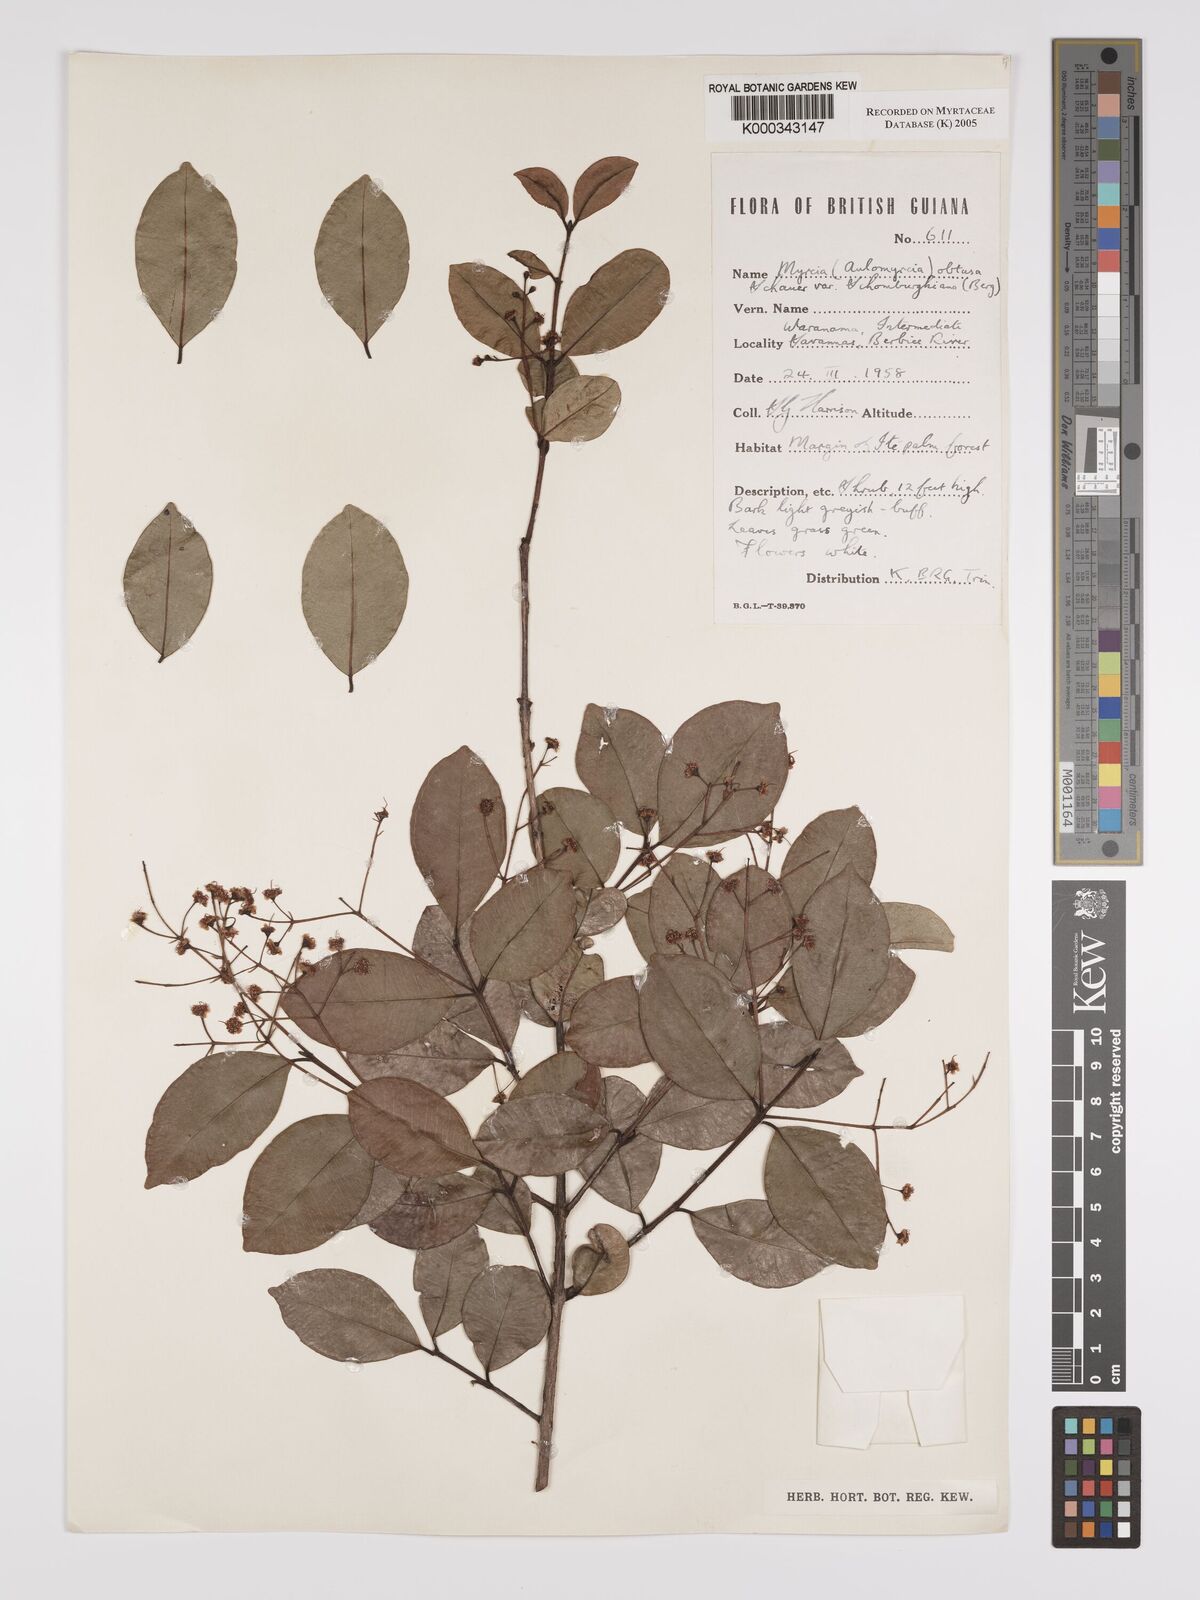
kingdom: Plantae
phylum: Tracheophyta
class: Magnoliopsida
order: Myrtales
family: Myrtaceae
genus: Myrcia
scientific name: Myrcia guianensis
